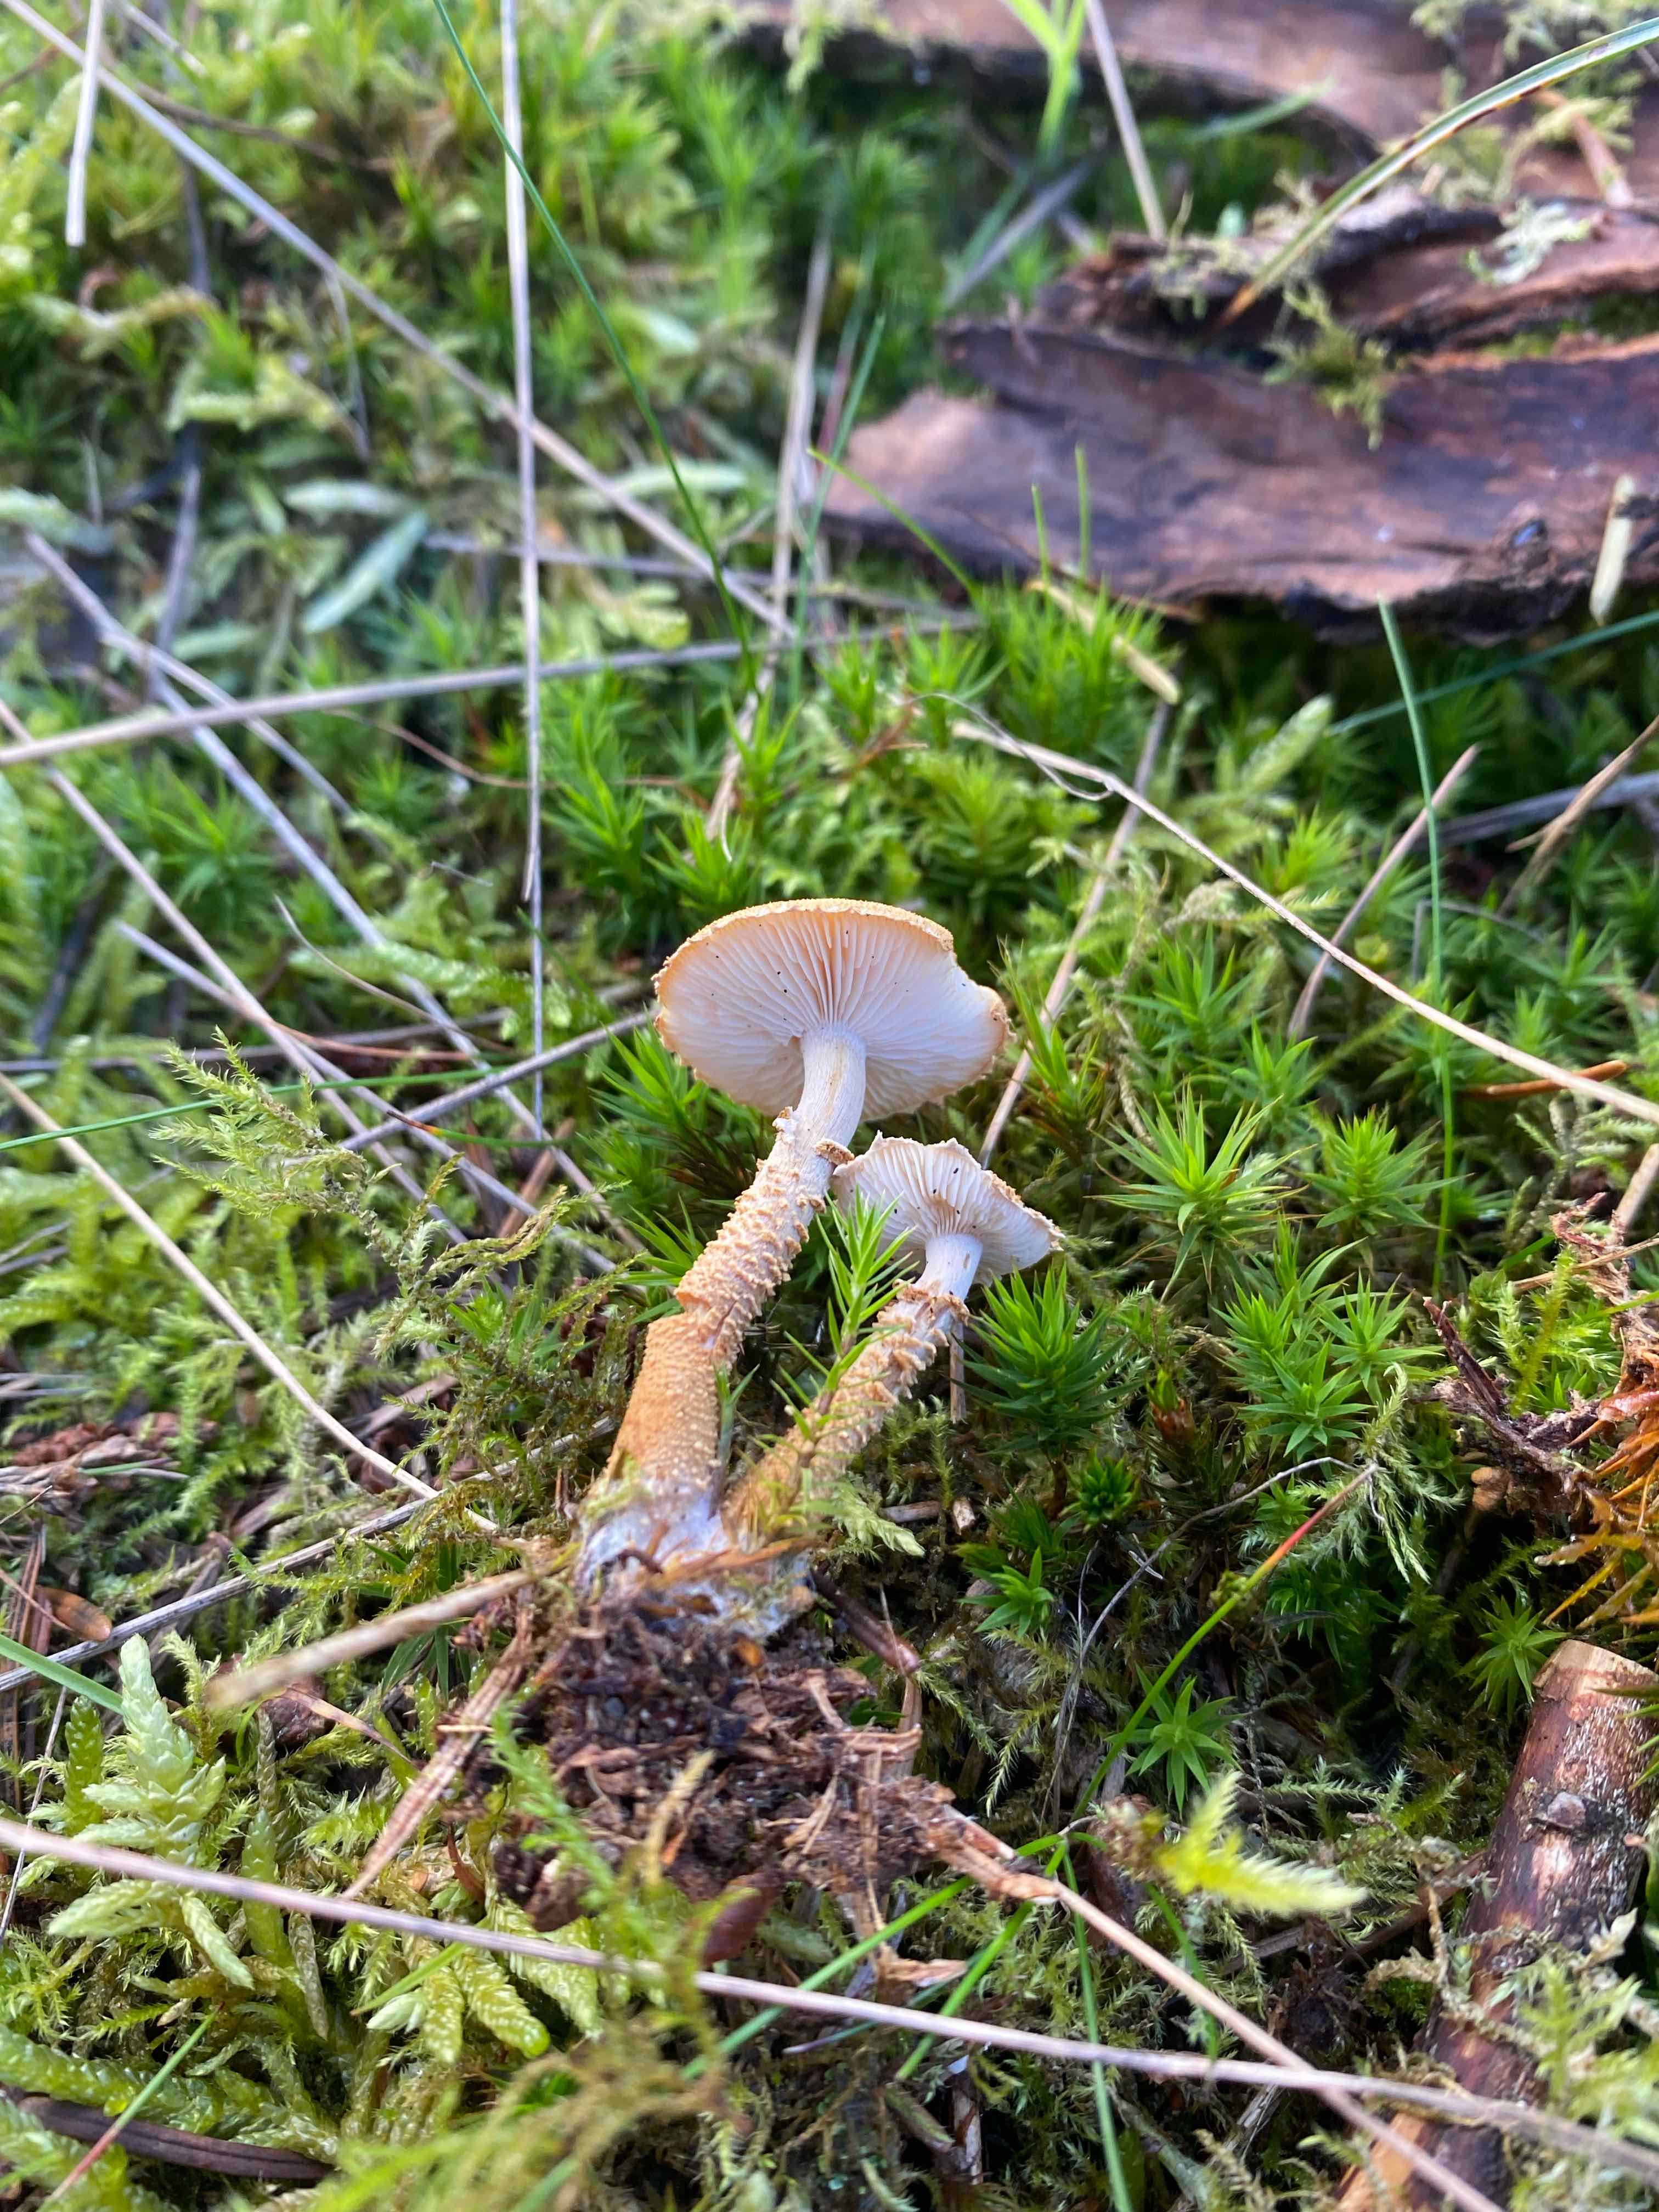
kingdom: Fungi
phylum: Basidiomycota
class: Agaricomycetes
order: Agaricales
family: Tricholomataceae
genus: Cystoderma
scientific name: Cystoderma amianthinum
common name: okkergul grynhat
